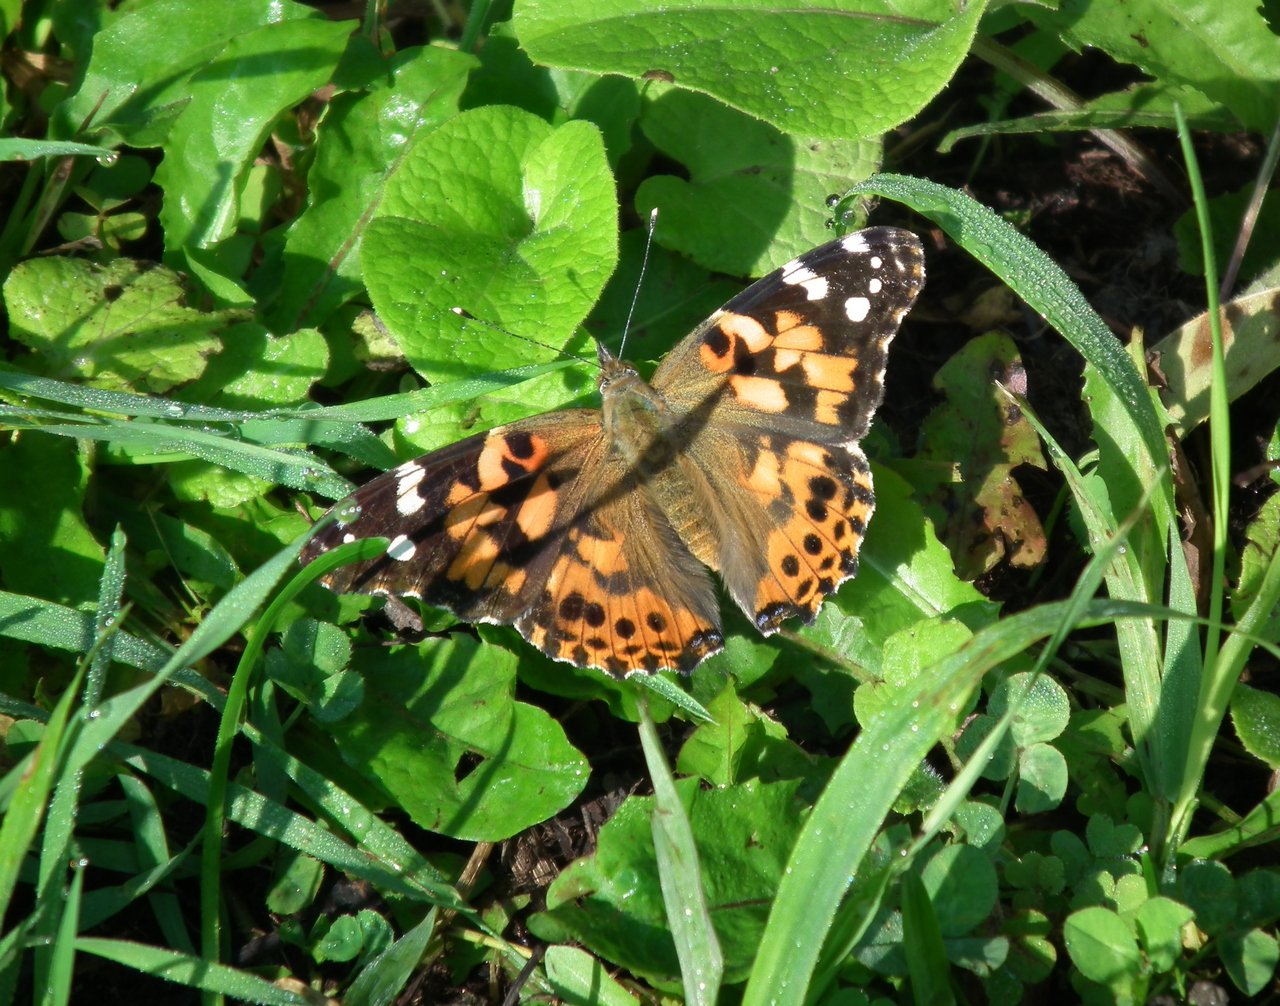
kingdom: Animalia
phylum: Arthropoda
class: Insecta
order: Lepidoptera
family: Nymphalidae
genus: Vanessa
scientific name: Vanessa cardui
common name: Painted Lady
